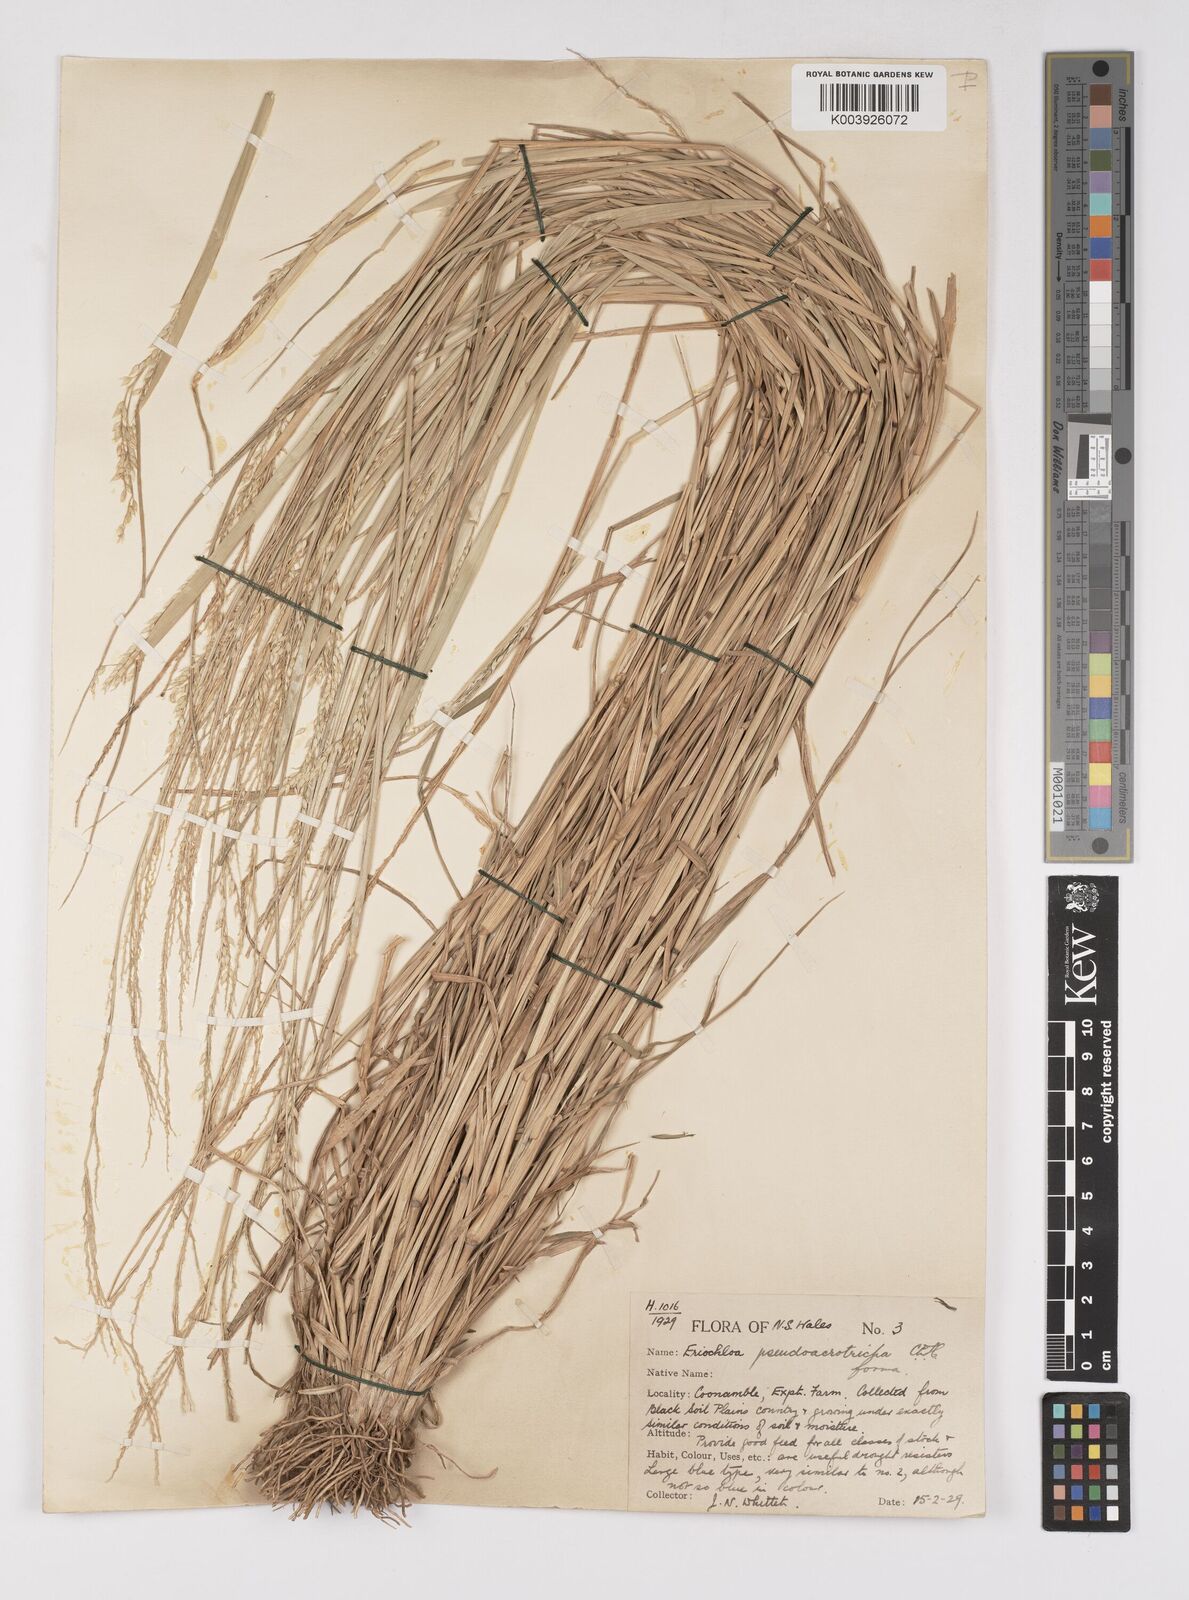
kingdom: Plantae
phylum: Tracheophyta
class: Liliopsida
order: Poales
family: Poaceae
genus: Eriochloa
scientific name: Eriochloa pseudoacrotricha
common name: Perennial cup-grass
